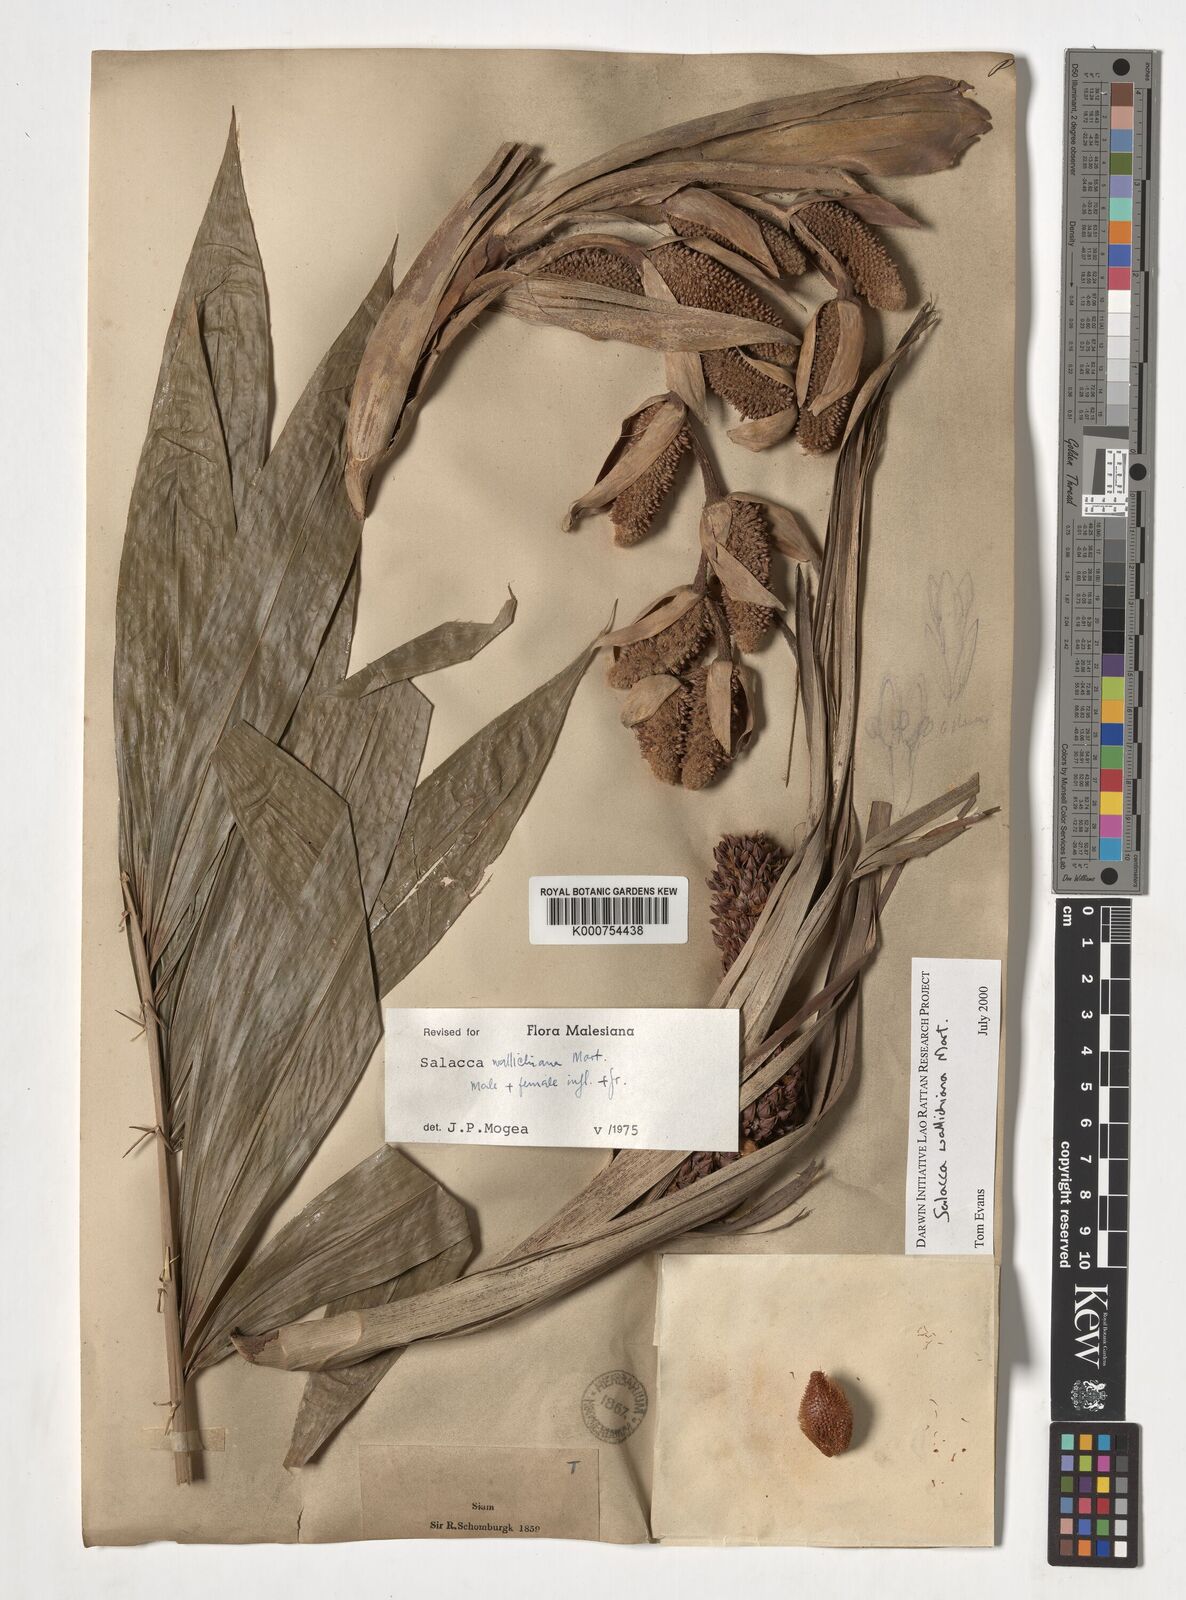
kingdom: Plantae
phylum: Tracheophyta
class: Liliopsida
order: Arecales
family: Arecaceae
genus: Salacca
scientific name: Salacca wallichiana
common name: Rakum palm
